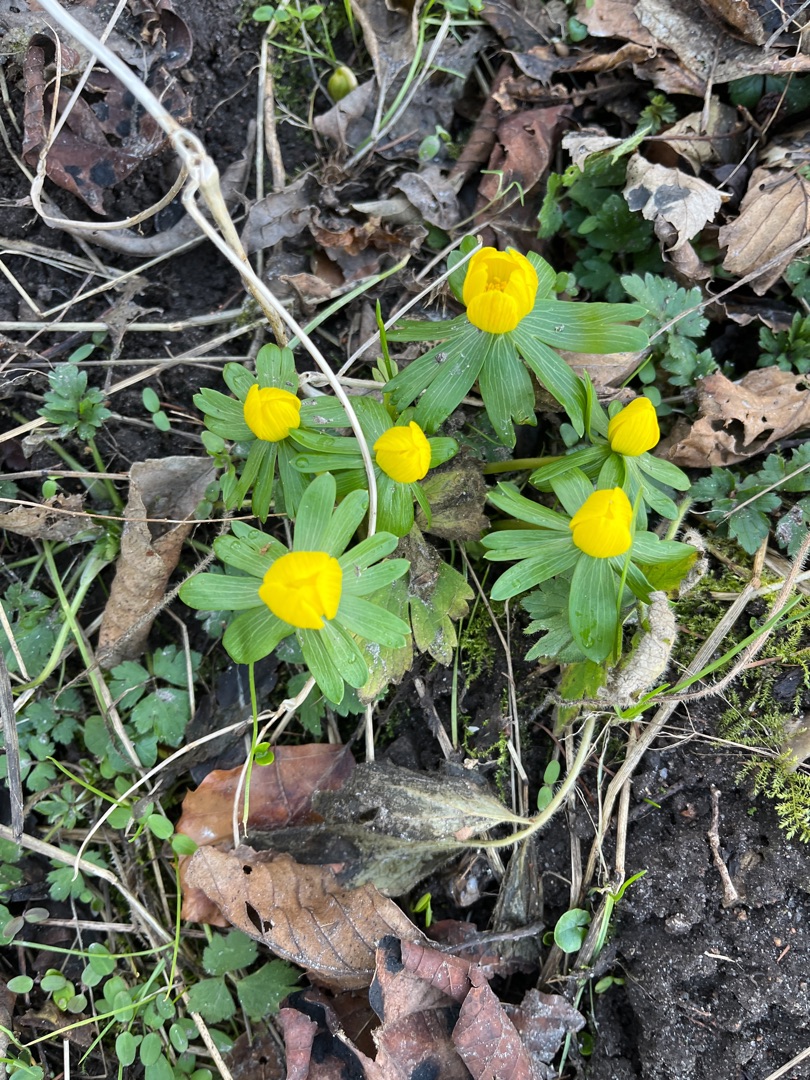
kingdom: Plantae
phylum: Tracheophyta
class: Magnoliopsida
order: Ranunculales
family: Ranunculaceae
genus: Eranthis
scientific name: Eranthis hyemalis
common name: Erantis
